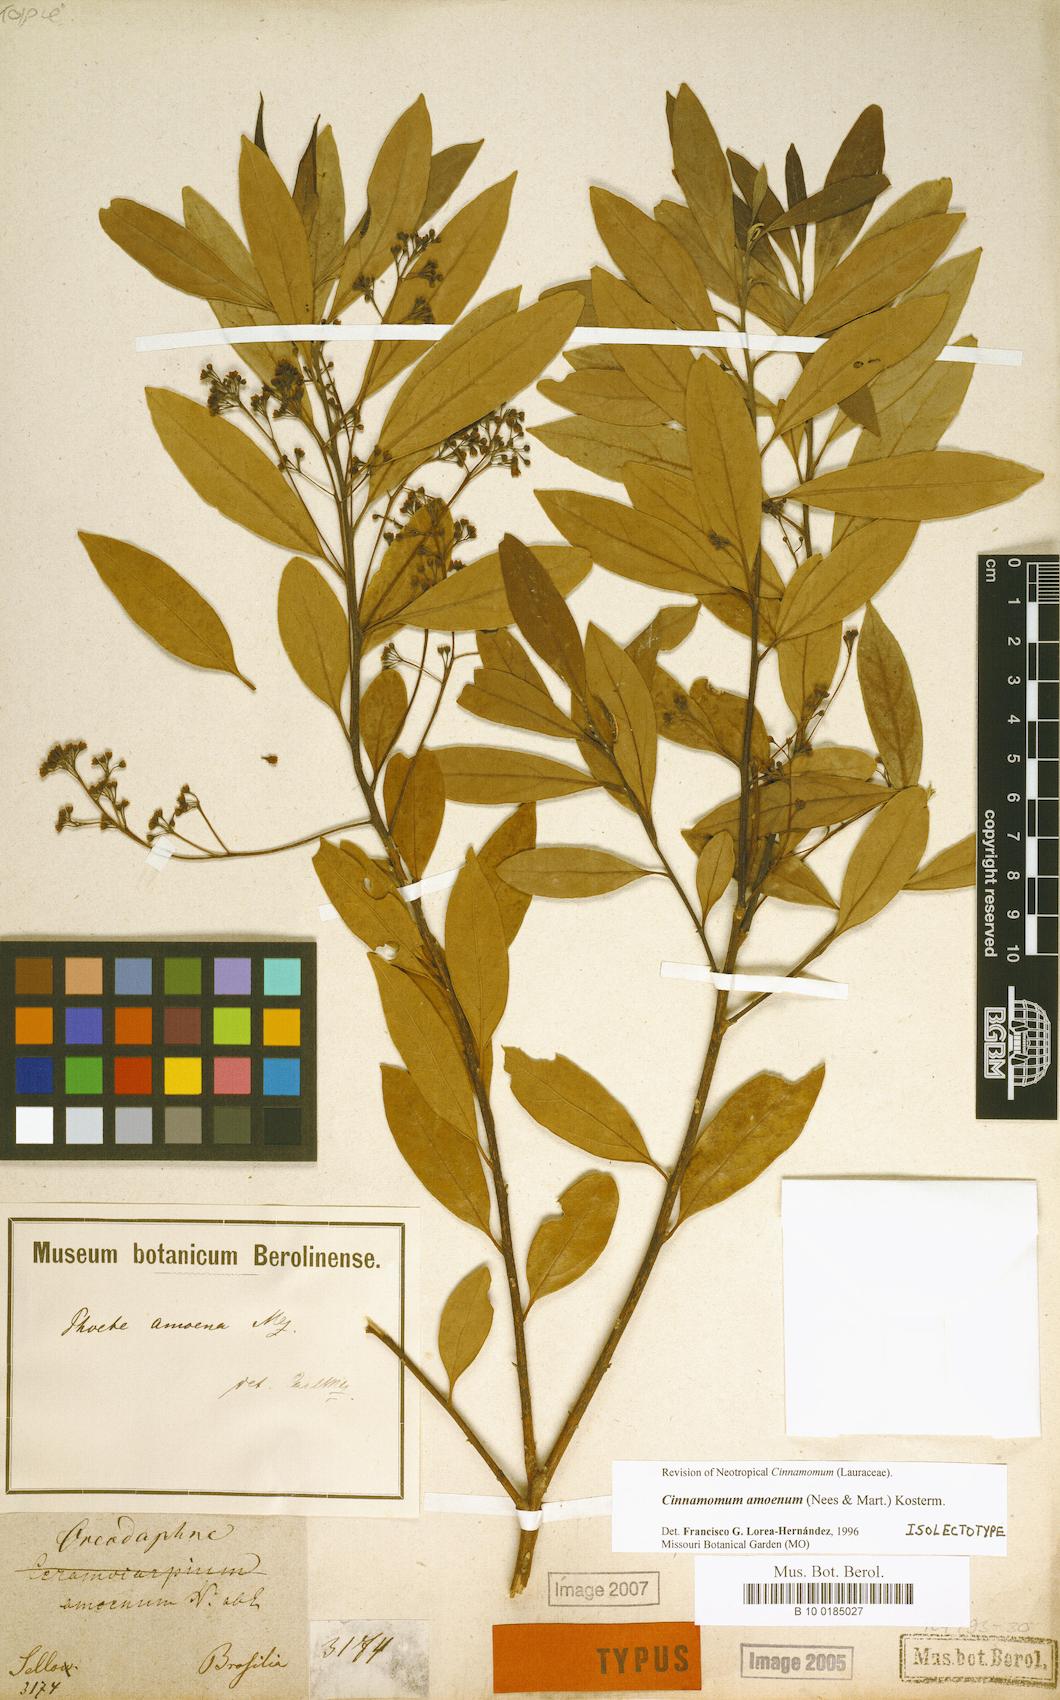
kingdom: Plantae
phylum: Tracheophyta
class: Magnoliopsida
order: Laurales
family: Lauraceae
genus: Aiouea
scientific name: Aiouea amoena
